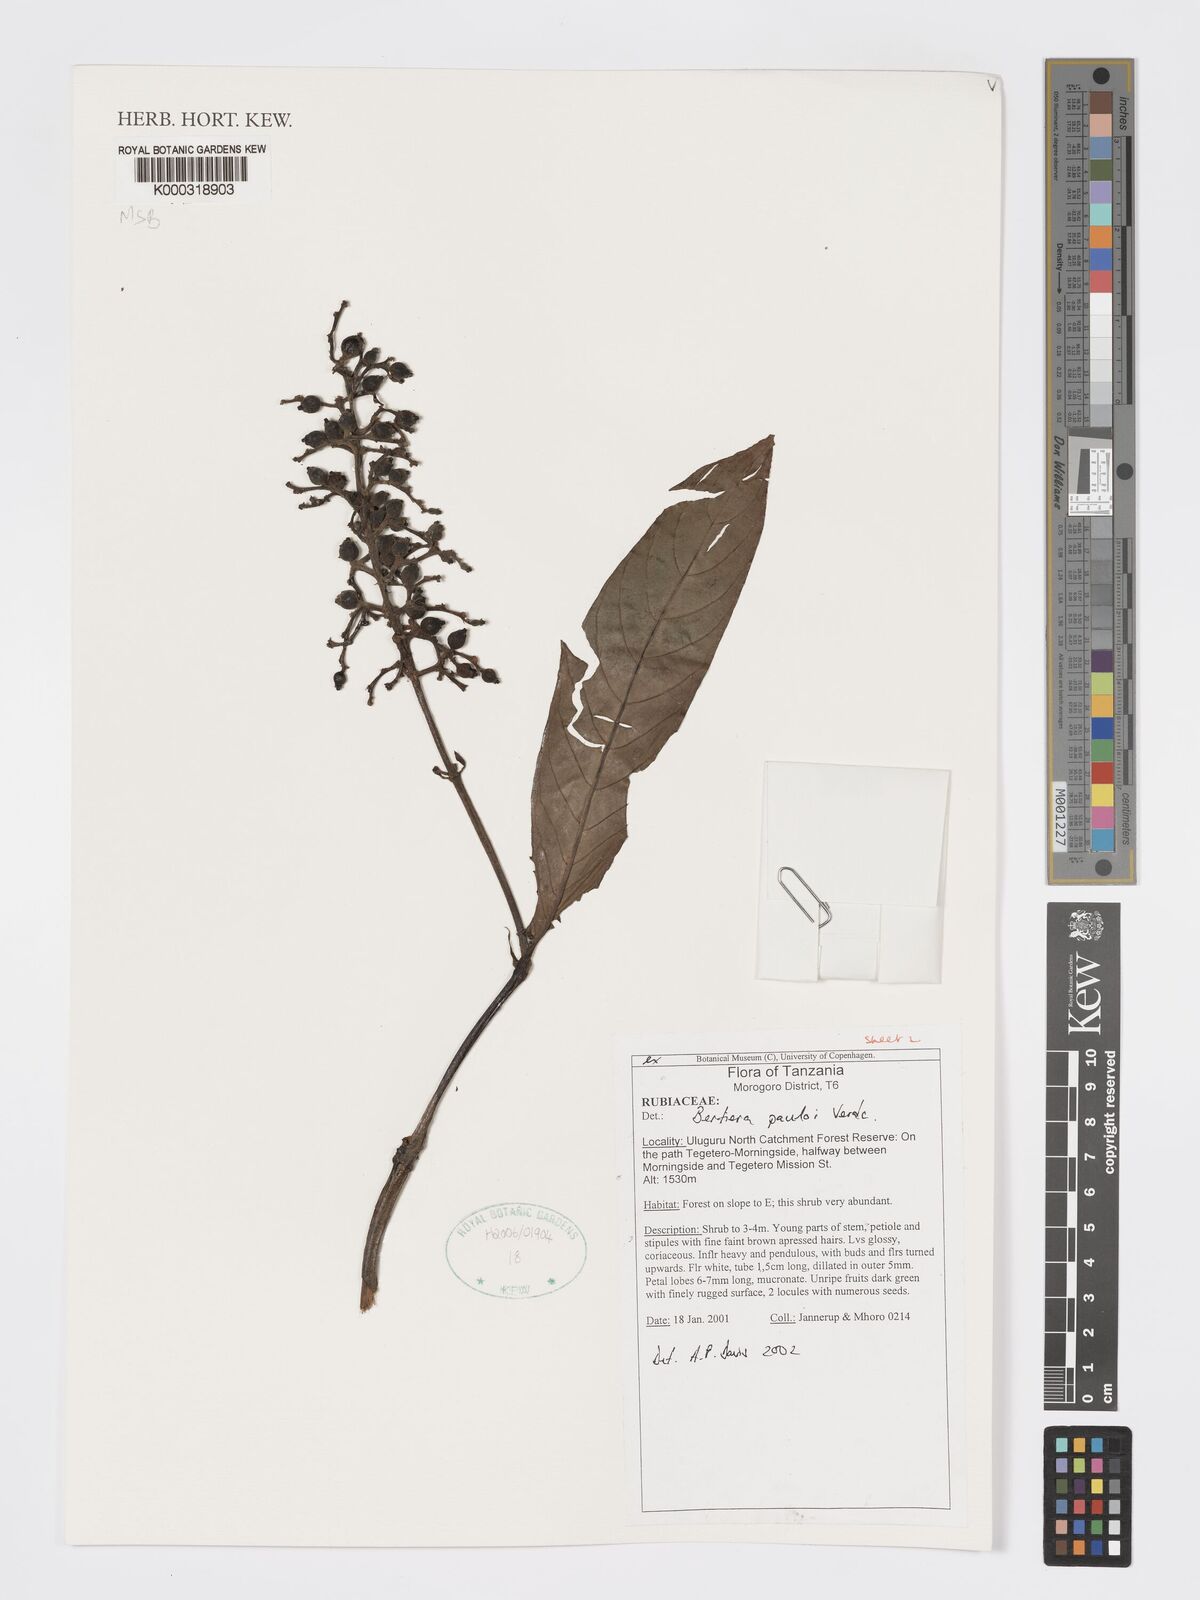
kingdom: Plantae
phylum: Tracheophyta
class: Magnoliopsida
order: Gentianales
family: Rubiaceae
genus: Bertiera
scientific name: Bertiera pauloi
